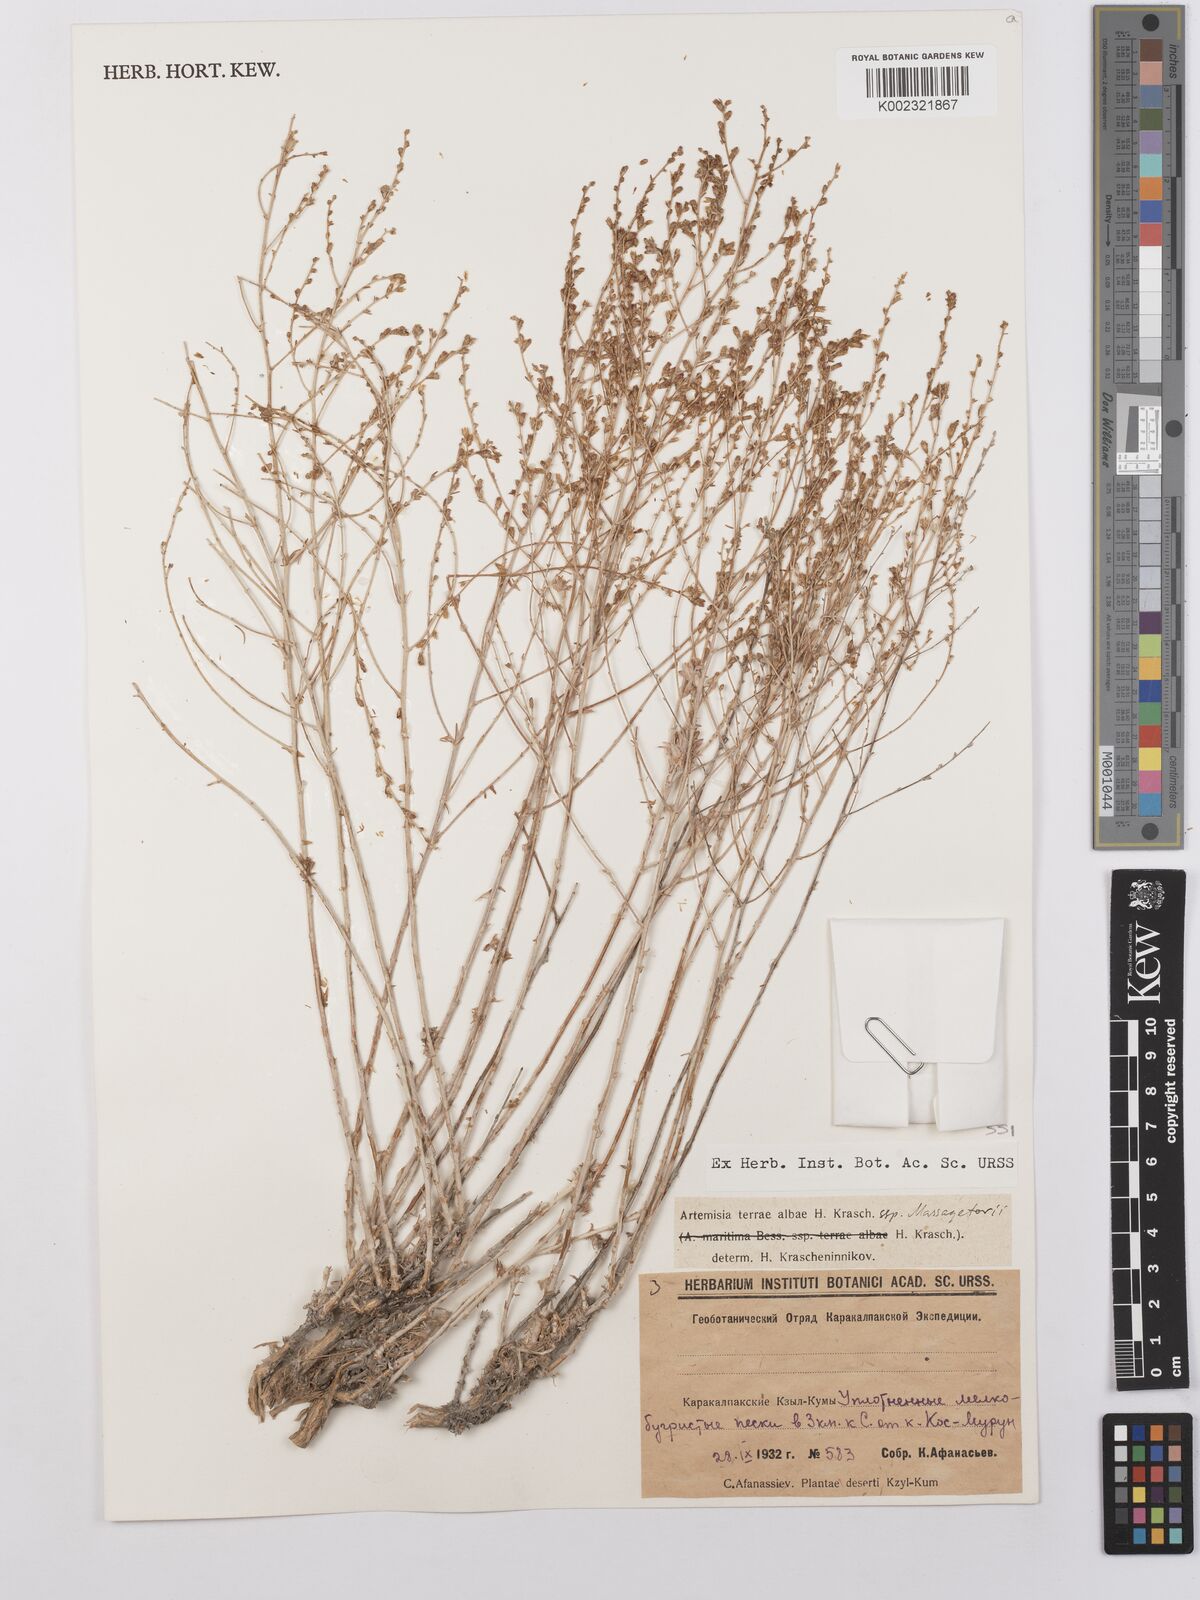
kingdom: Plantae
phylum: Tracheophyta
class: Magnoliopsida
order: Asterales
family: Asteraceae
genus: Artemisia
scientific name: Artemisia terrae-albae
